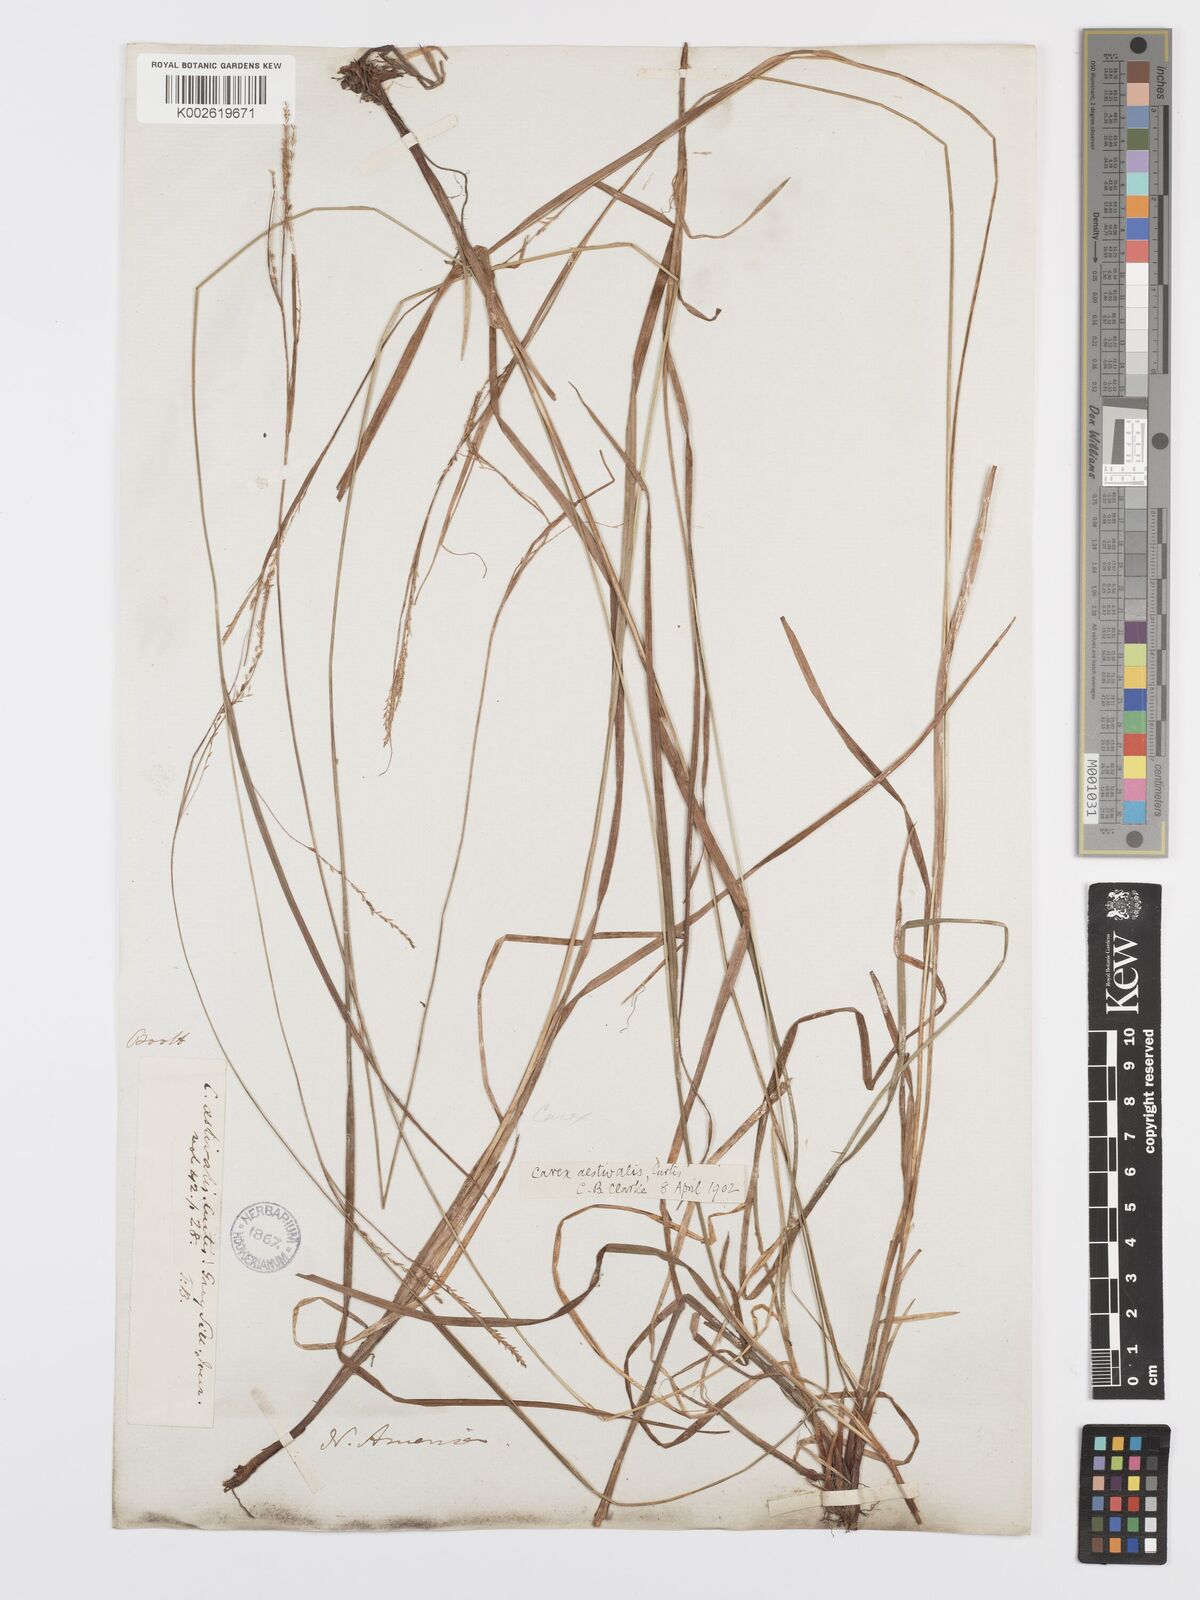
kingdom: Plantae
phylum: Tracheophyta
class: Liliopsida
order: Poales
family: Cyperaceae
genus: Carex
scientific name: Carex aestivalis
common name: Summer sedge
